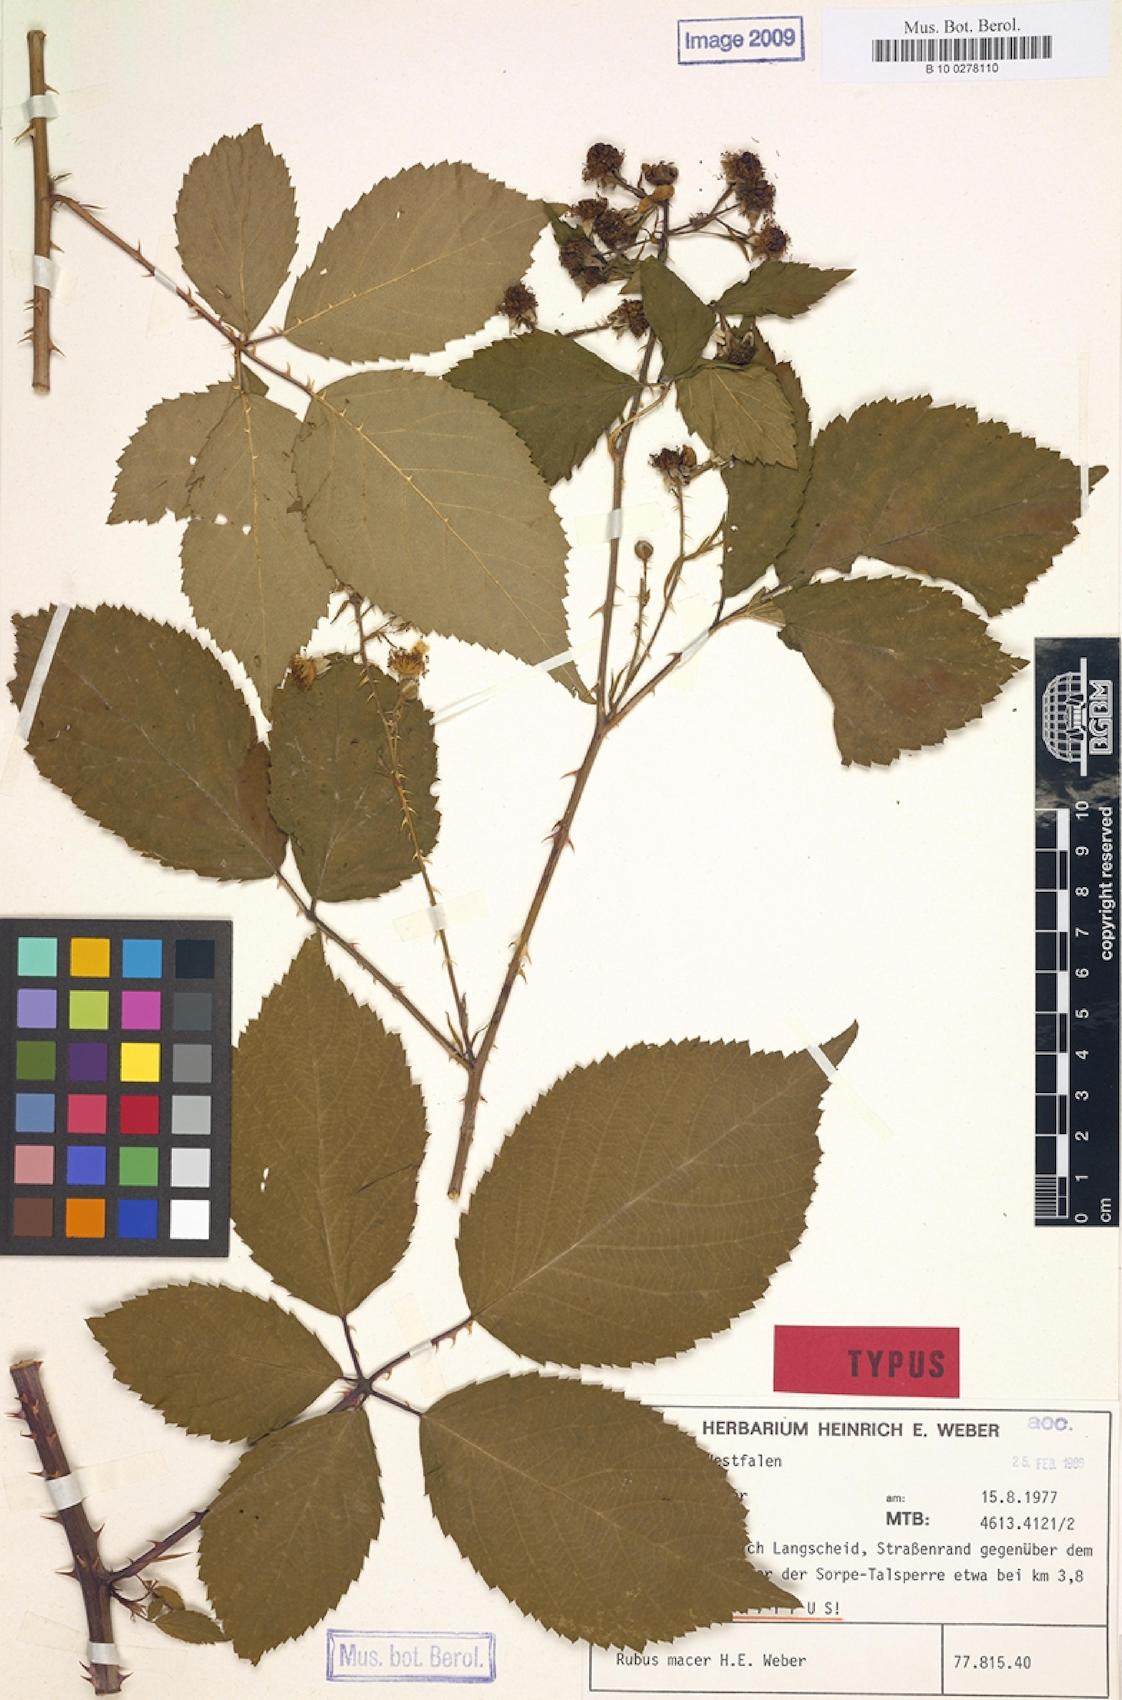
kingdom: Plantae
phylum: Tracheophyta
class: Magnoliopsida
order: Rosales
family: Rosaceae
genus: Rubus
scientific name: Rubus macer
